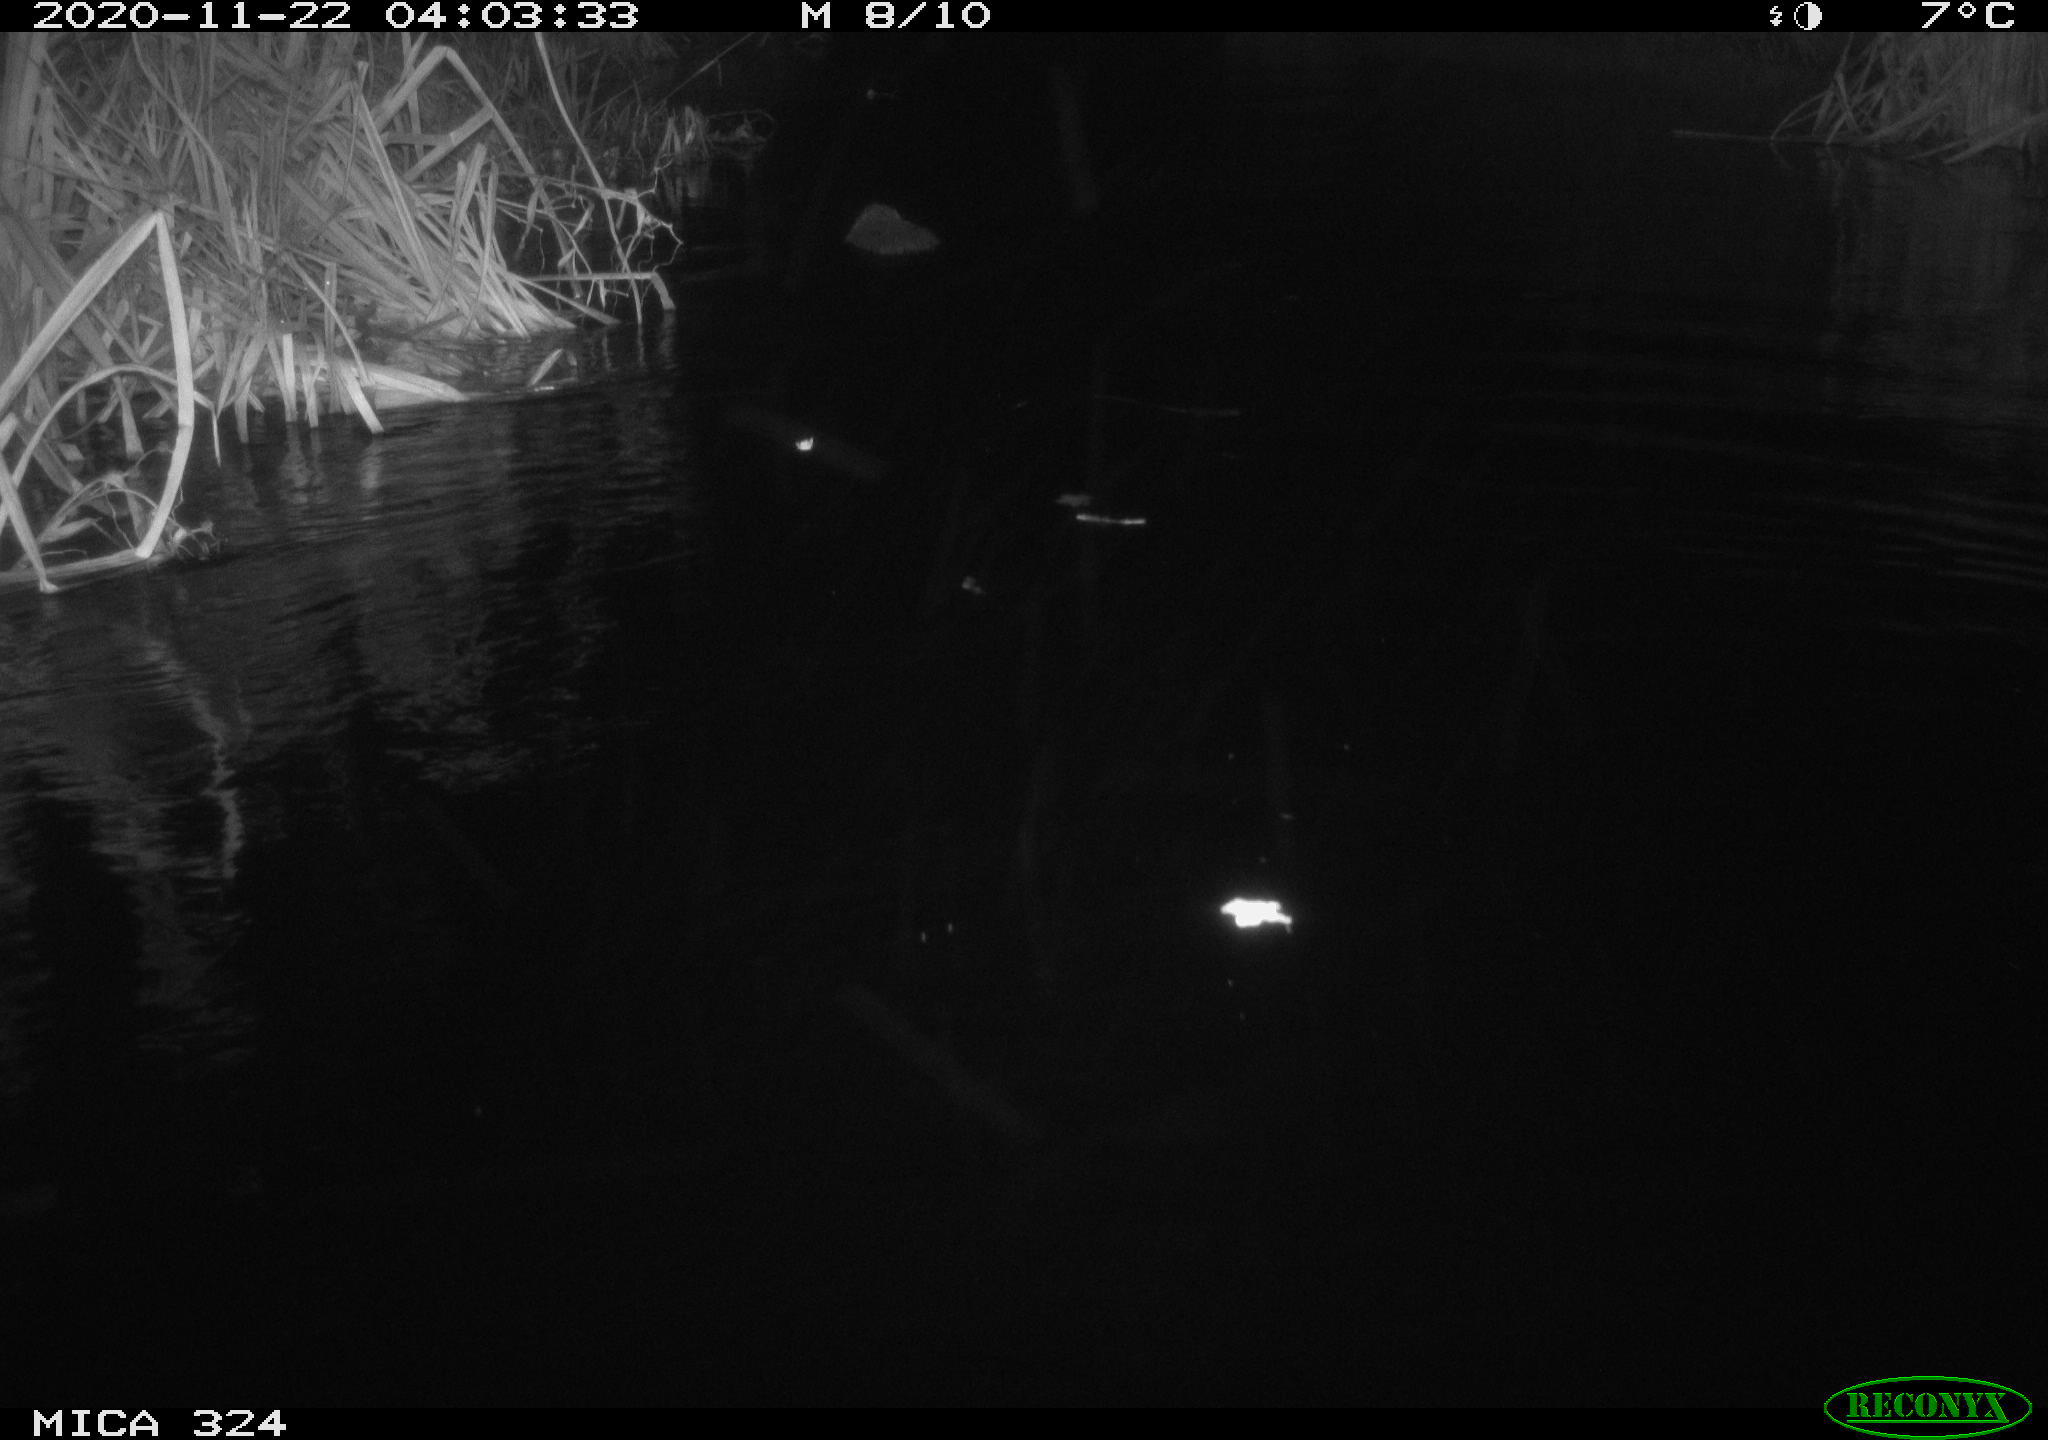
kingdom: Animalia
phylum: Chordata
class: Mammalia
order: Rodentia
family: Myocastoridae
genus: Myocastor
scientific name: Myocastor coypus
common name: Coypu
